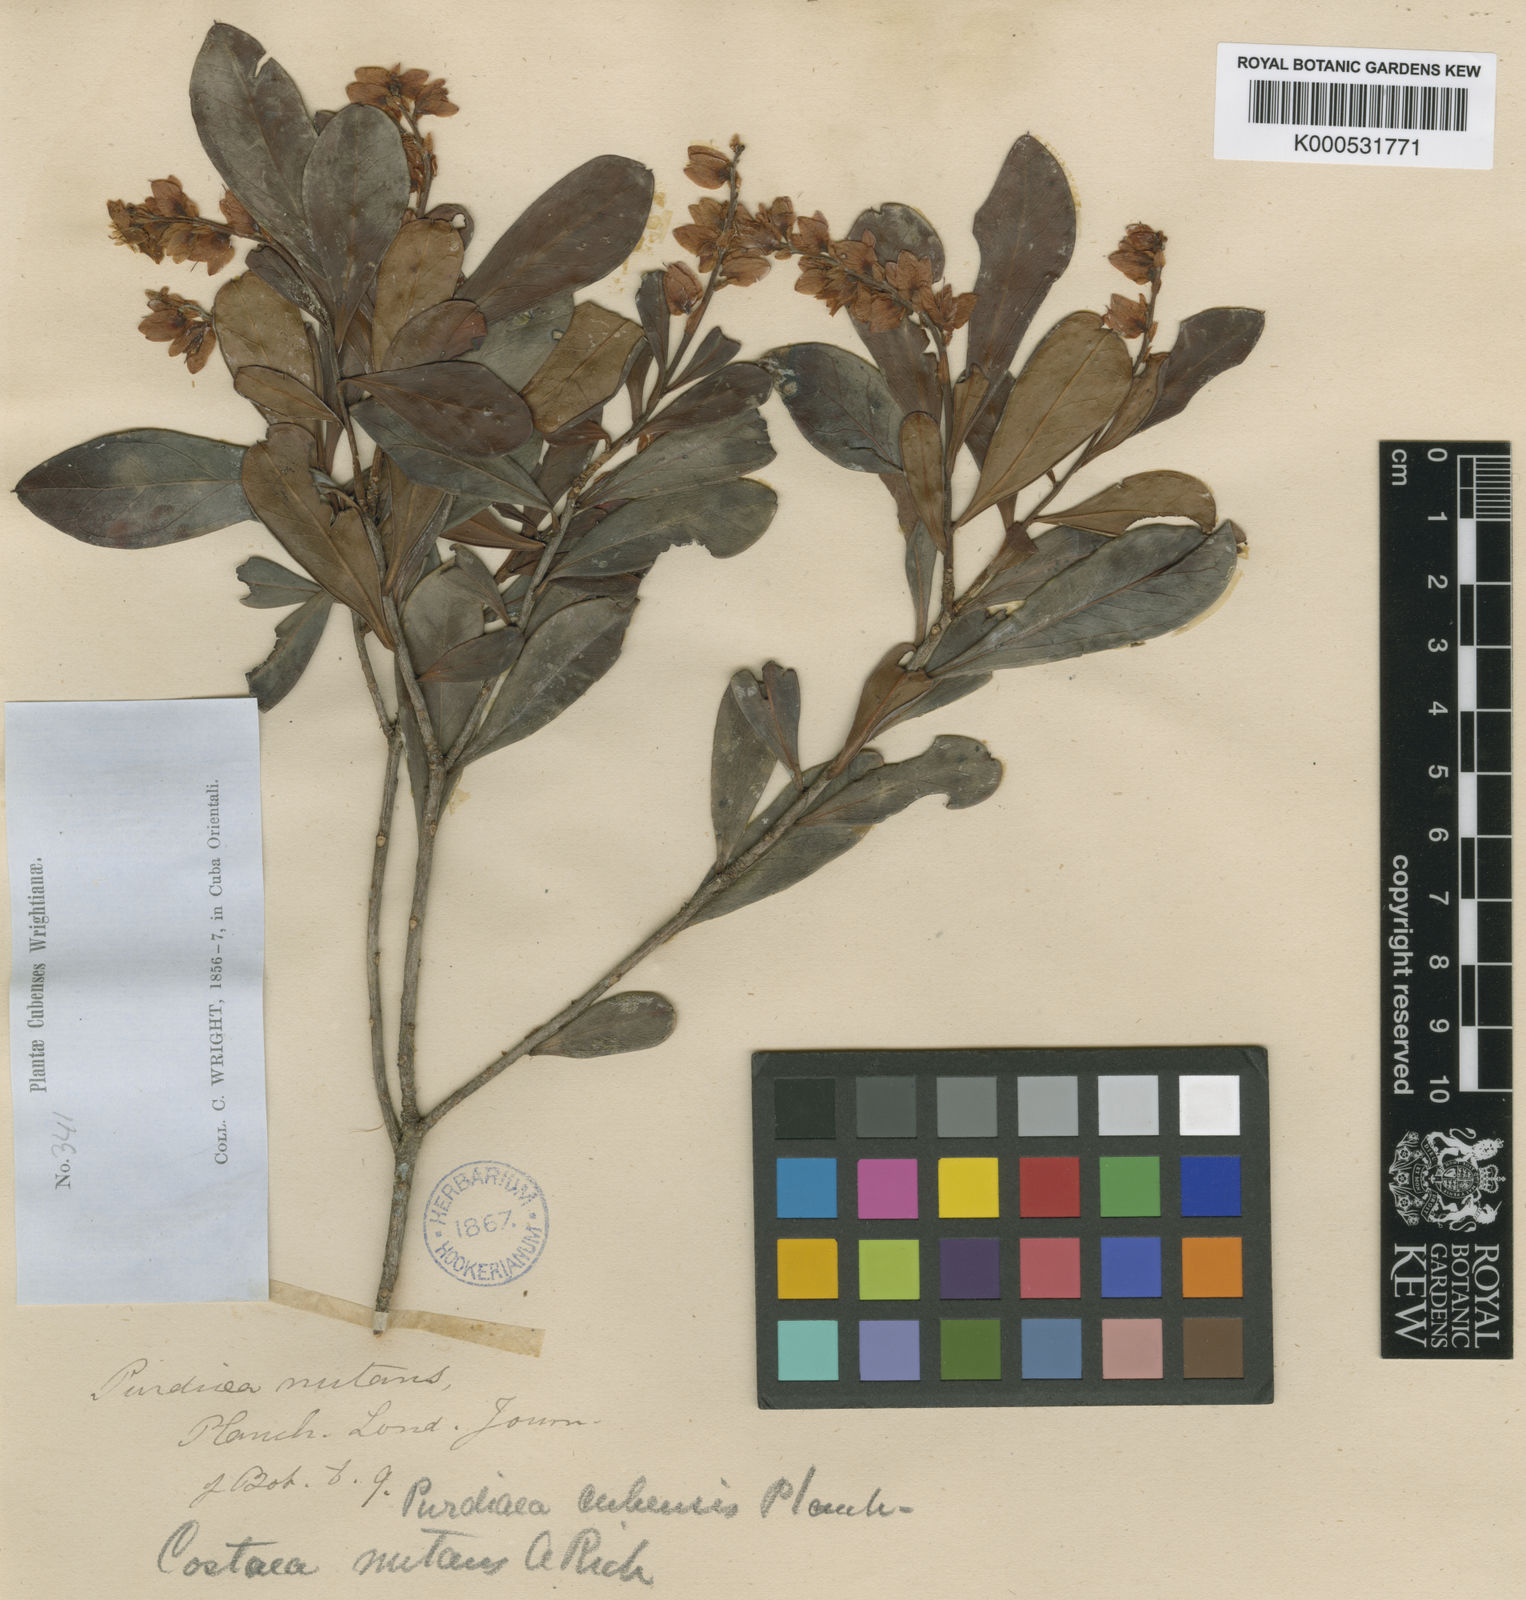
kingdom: Plantae
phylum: Tracheophyta
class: Magnoliopsida
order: Ericales
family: Clethraceae
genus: Purdiaea
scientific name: Purdiaea stenopetala
